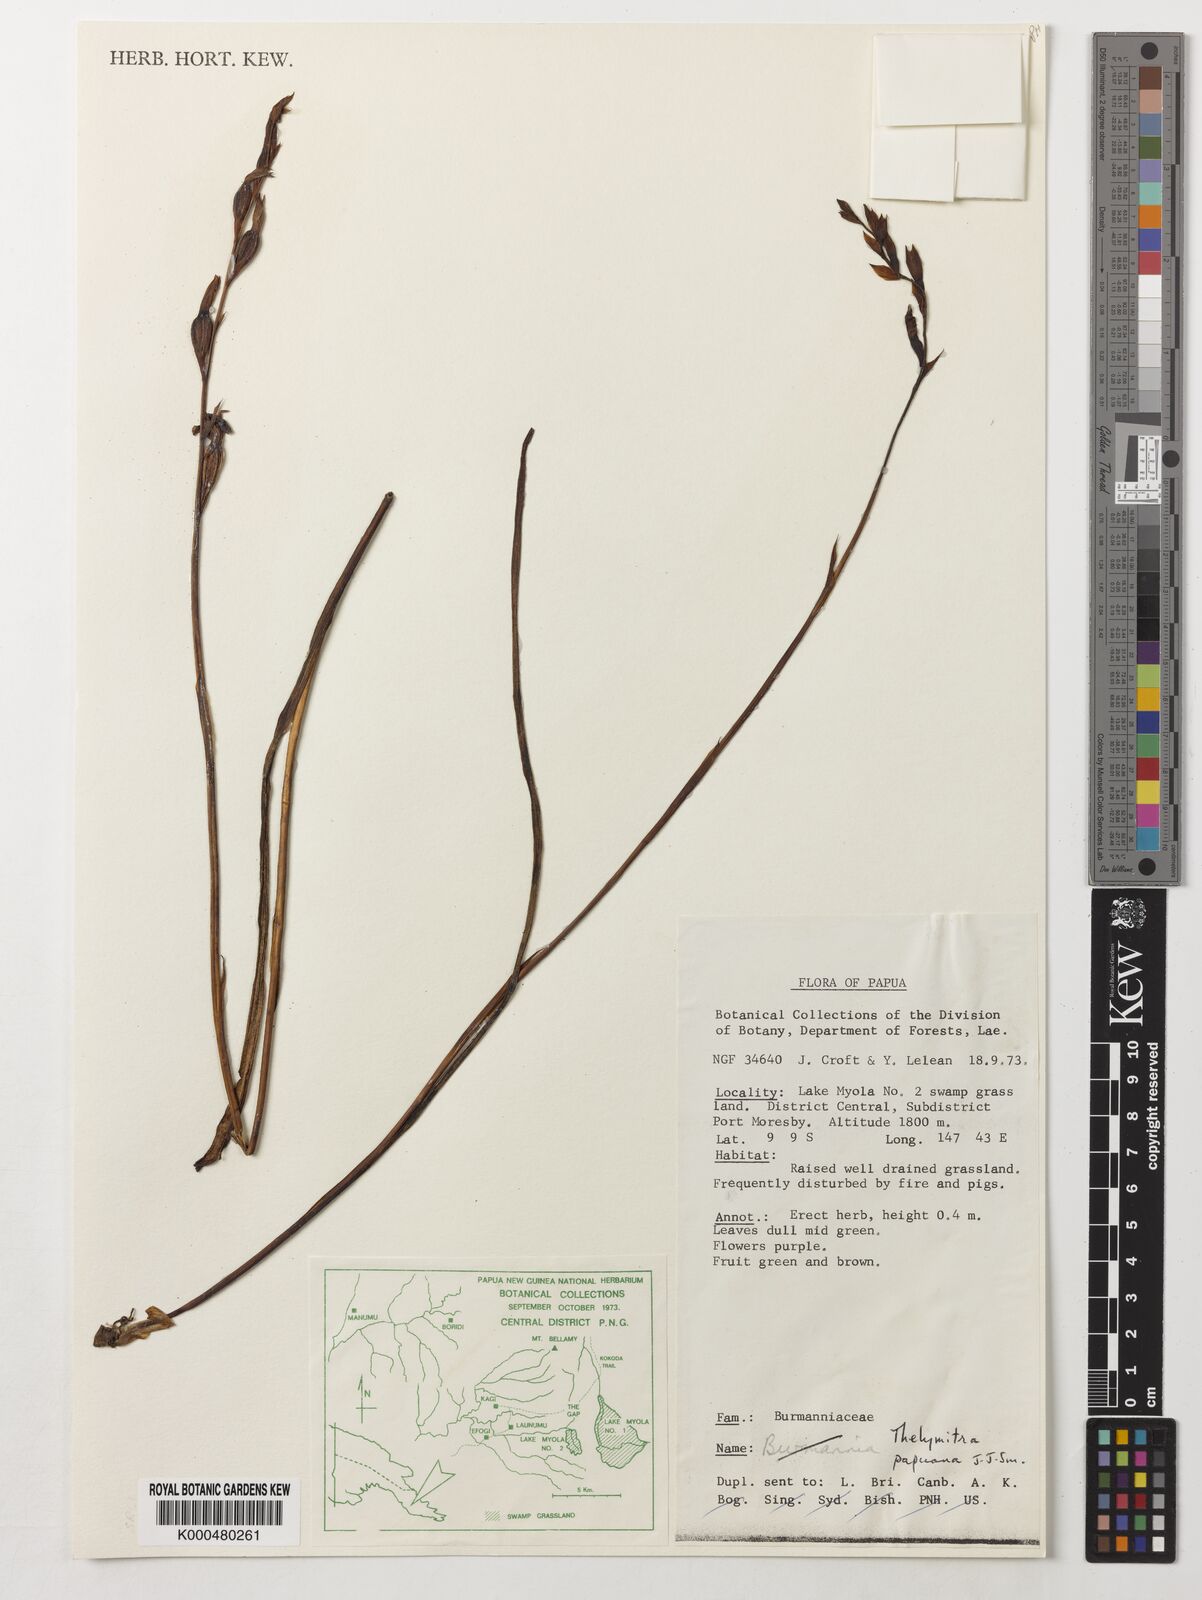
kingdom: Plantae
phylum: Tracheophyta
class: Liliopsida
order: Asparagales
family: Orchidaceae
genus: Thelymitra
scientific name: Thelymitra papuana
